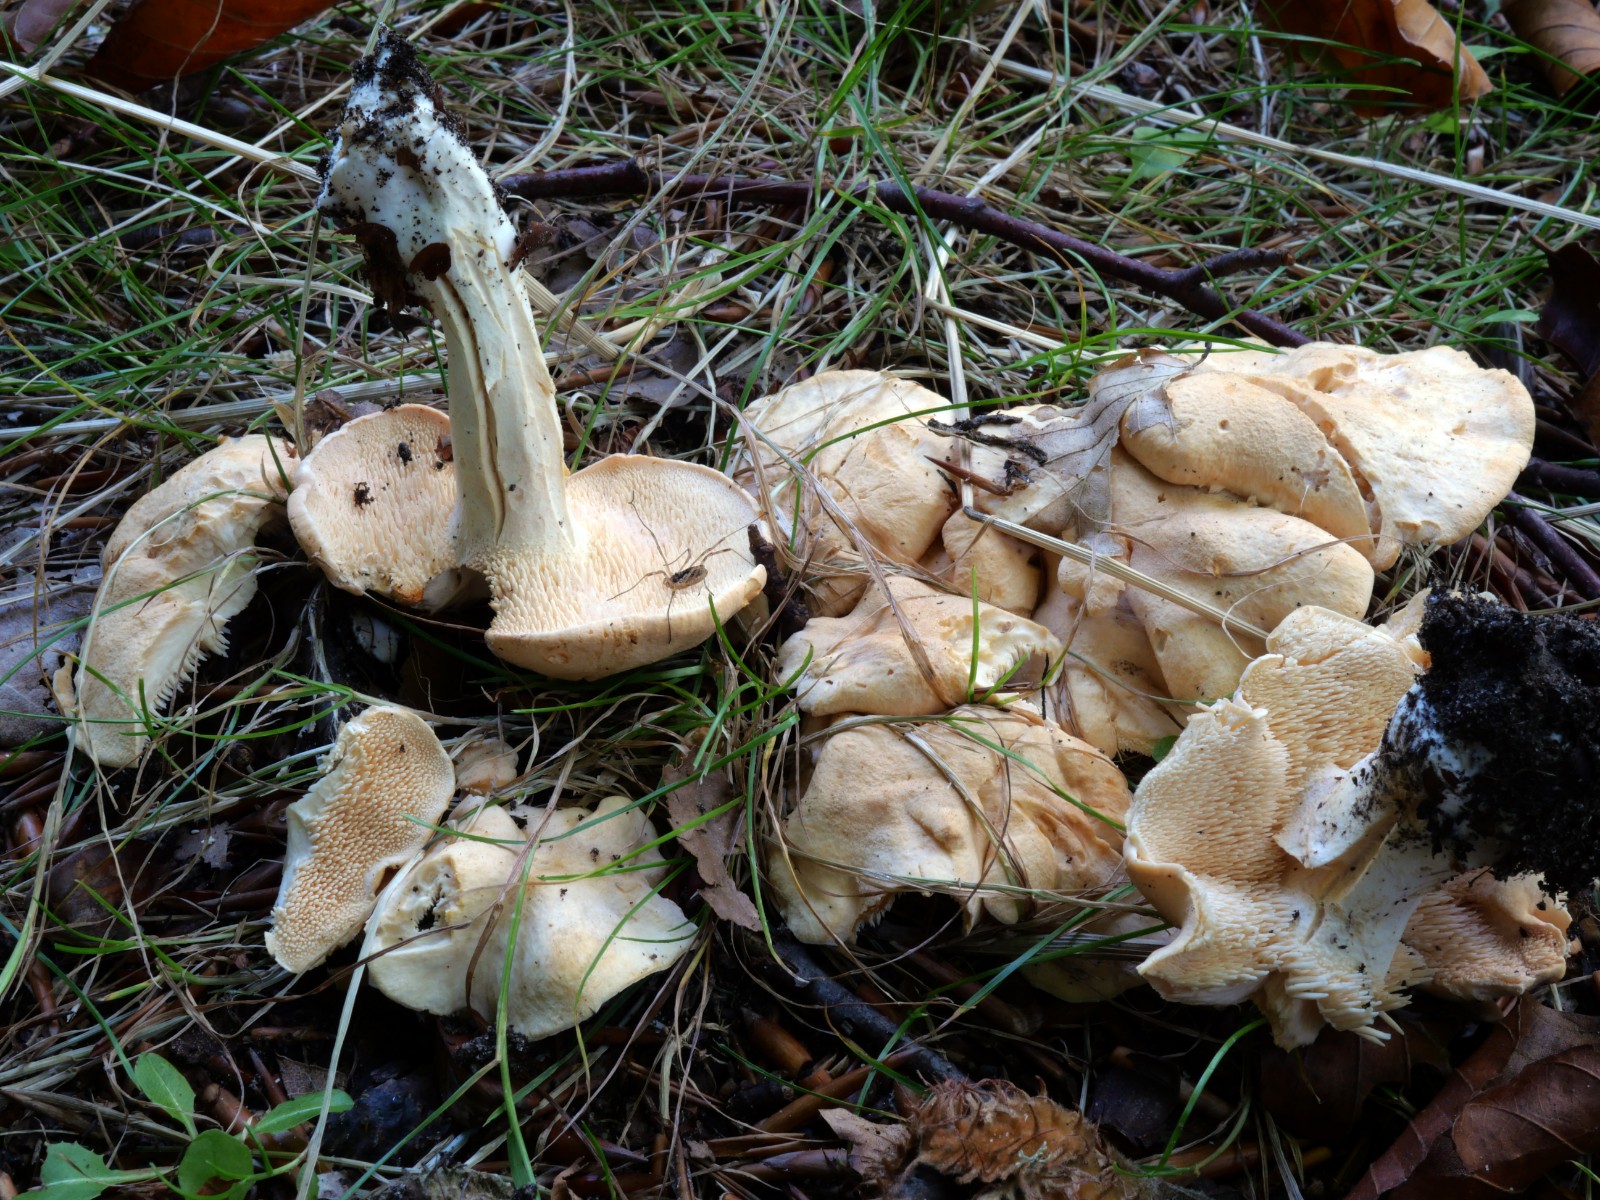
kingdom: Fungi
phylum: Basidiomycota
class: Agaricomycetes
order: Cantharellales
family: Hydnaceae
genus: Hydnum
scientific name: Hydnum ibericum
